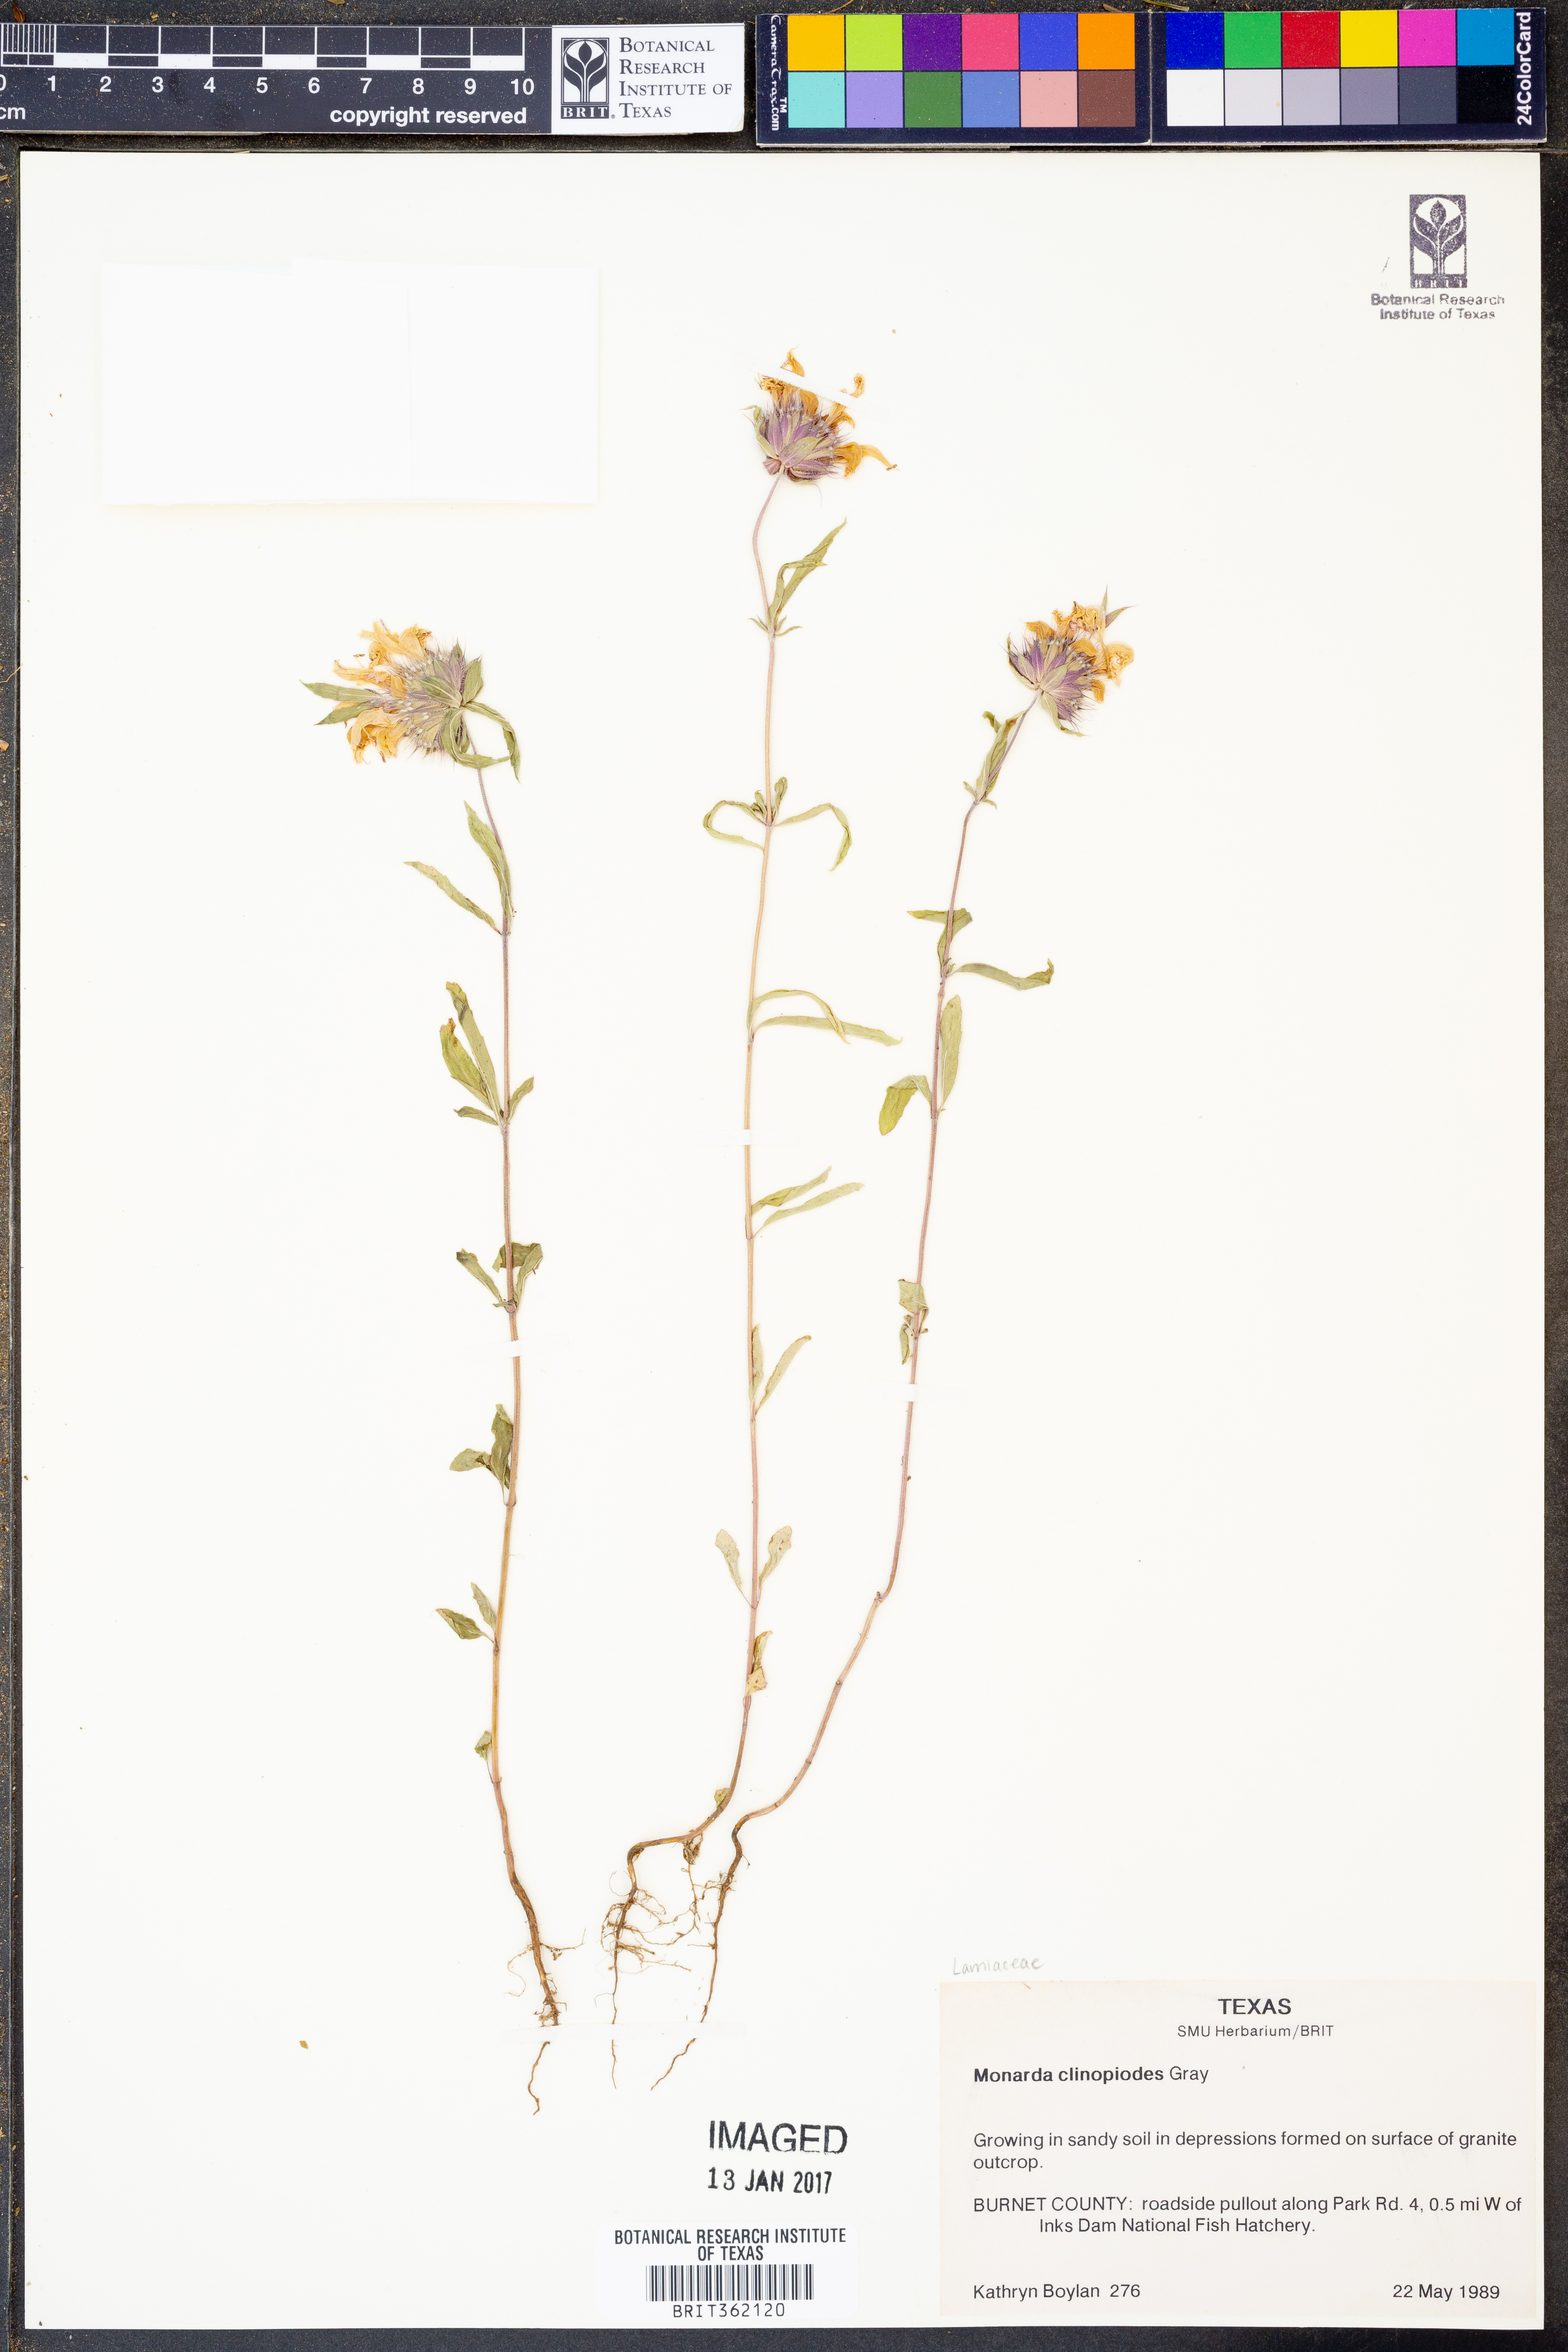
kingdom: Plantae
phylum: Tracheophyta
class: Magnoliopsida
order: Lamiales
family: Lamiaceae
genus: Monarda
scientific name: Monarda clinopodia
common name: Basil beebalm
